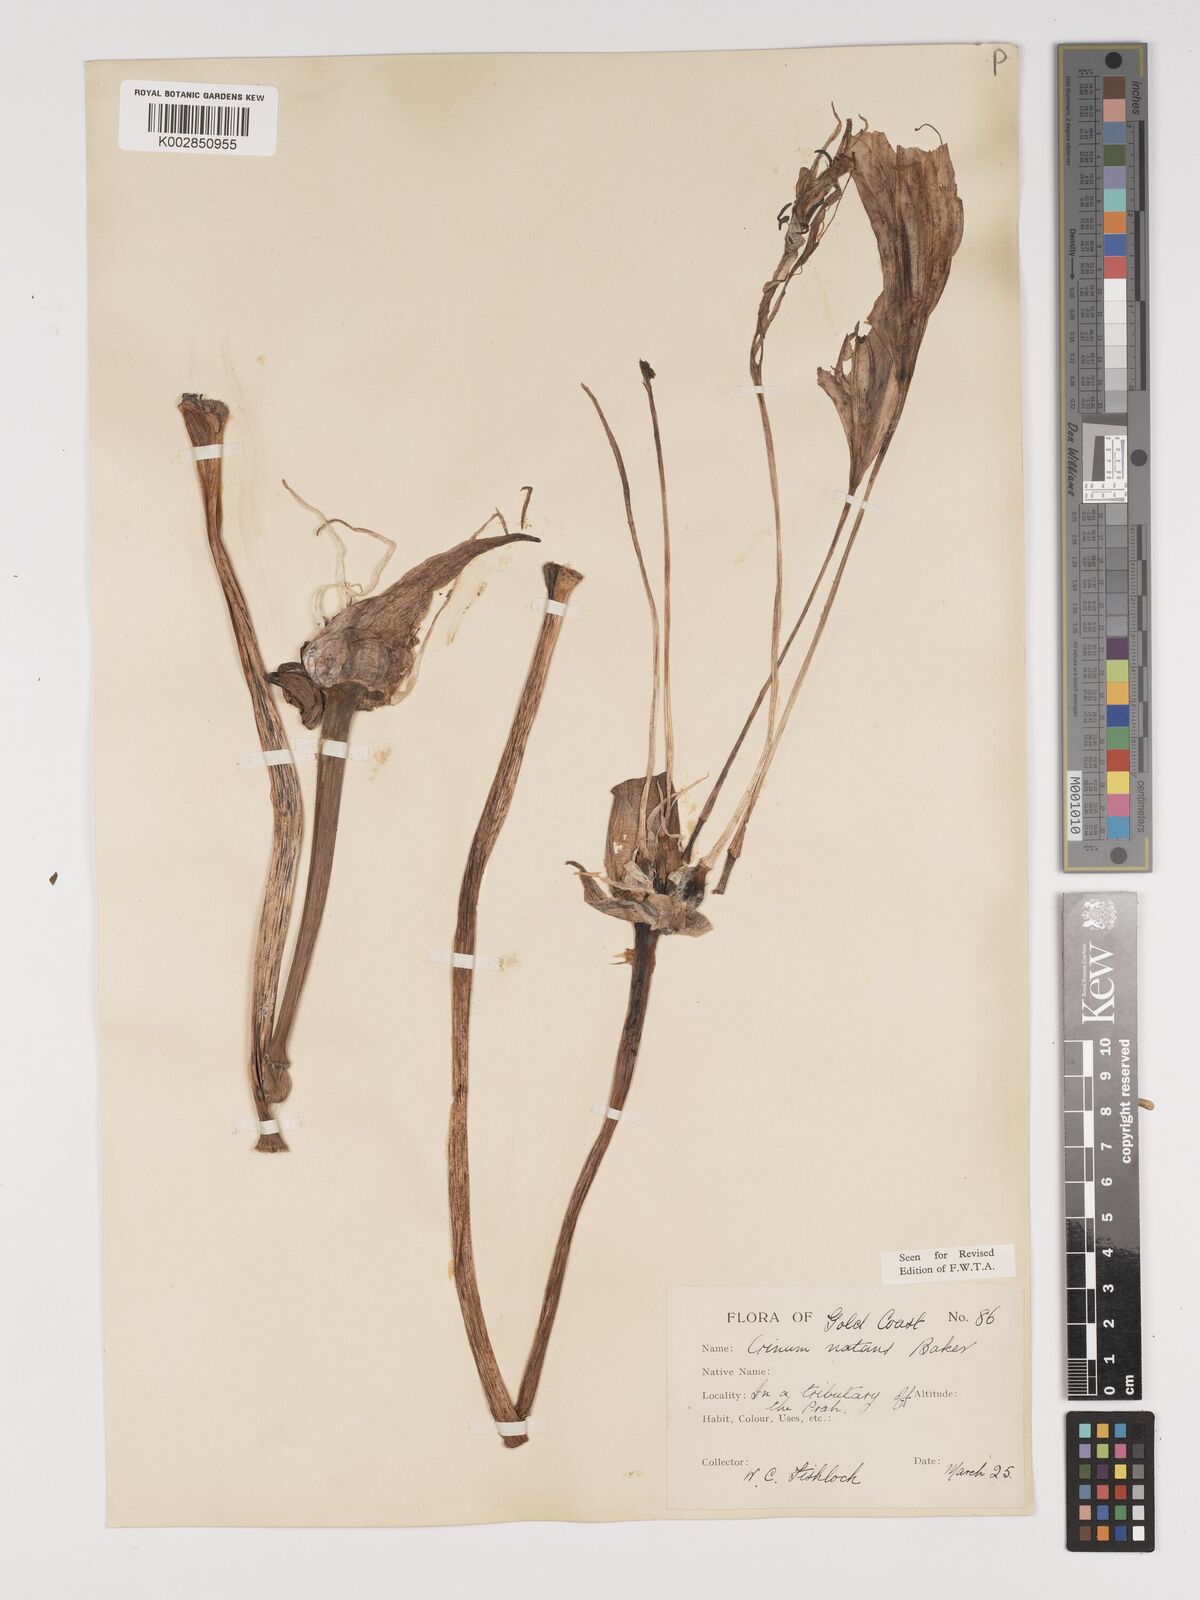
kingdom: Plantae
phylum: Tracheophyta
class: Liliopsida
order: Asparagales
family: Amaryllidaceae
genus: Crinum
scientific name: Crinum moorei
